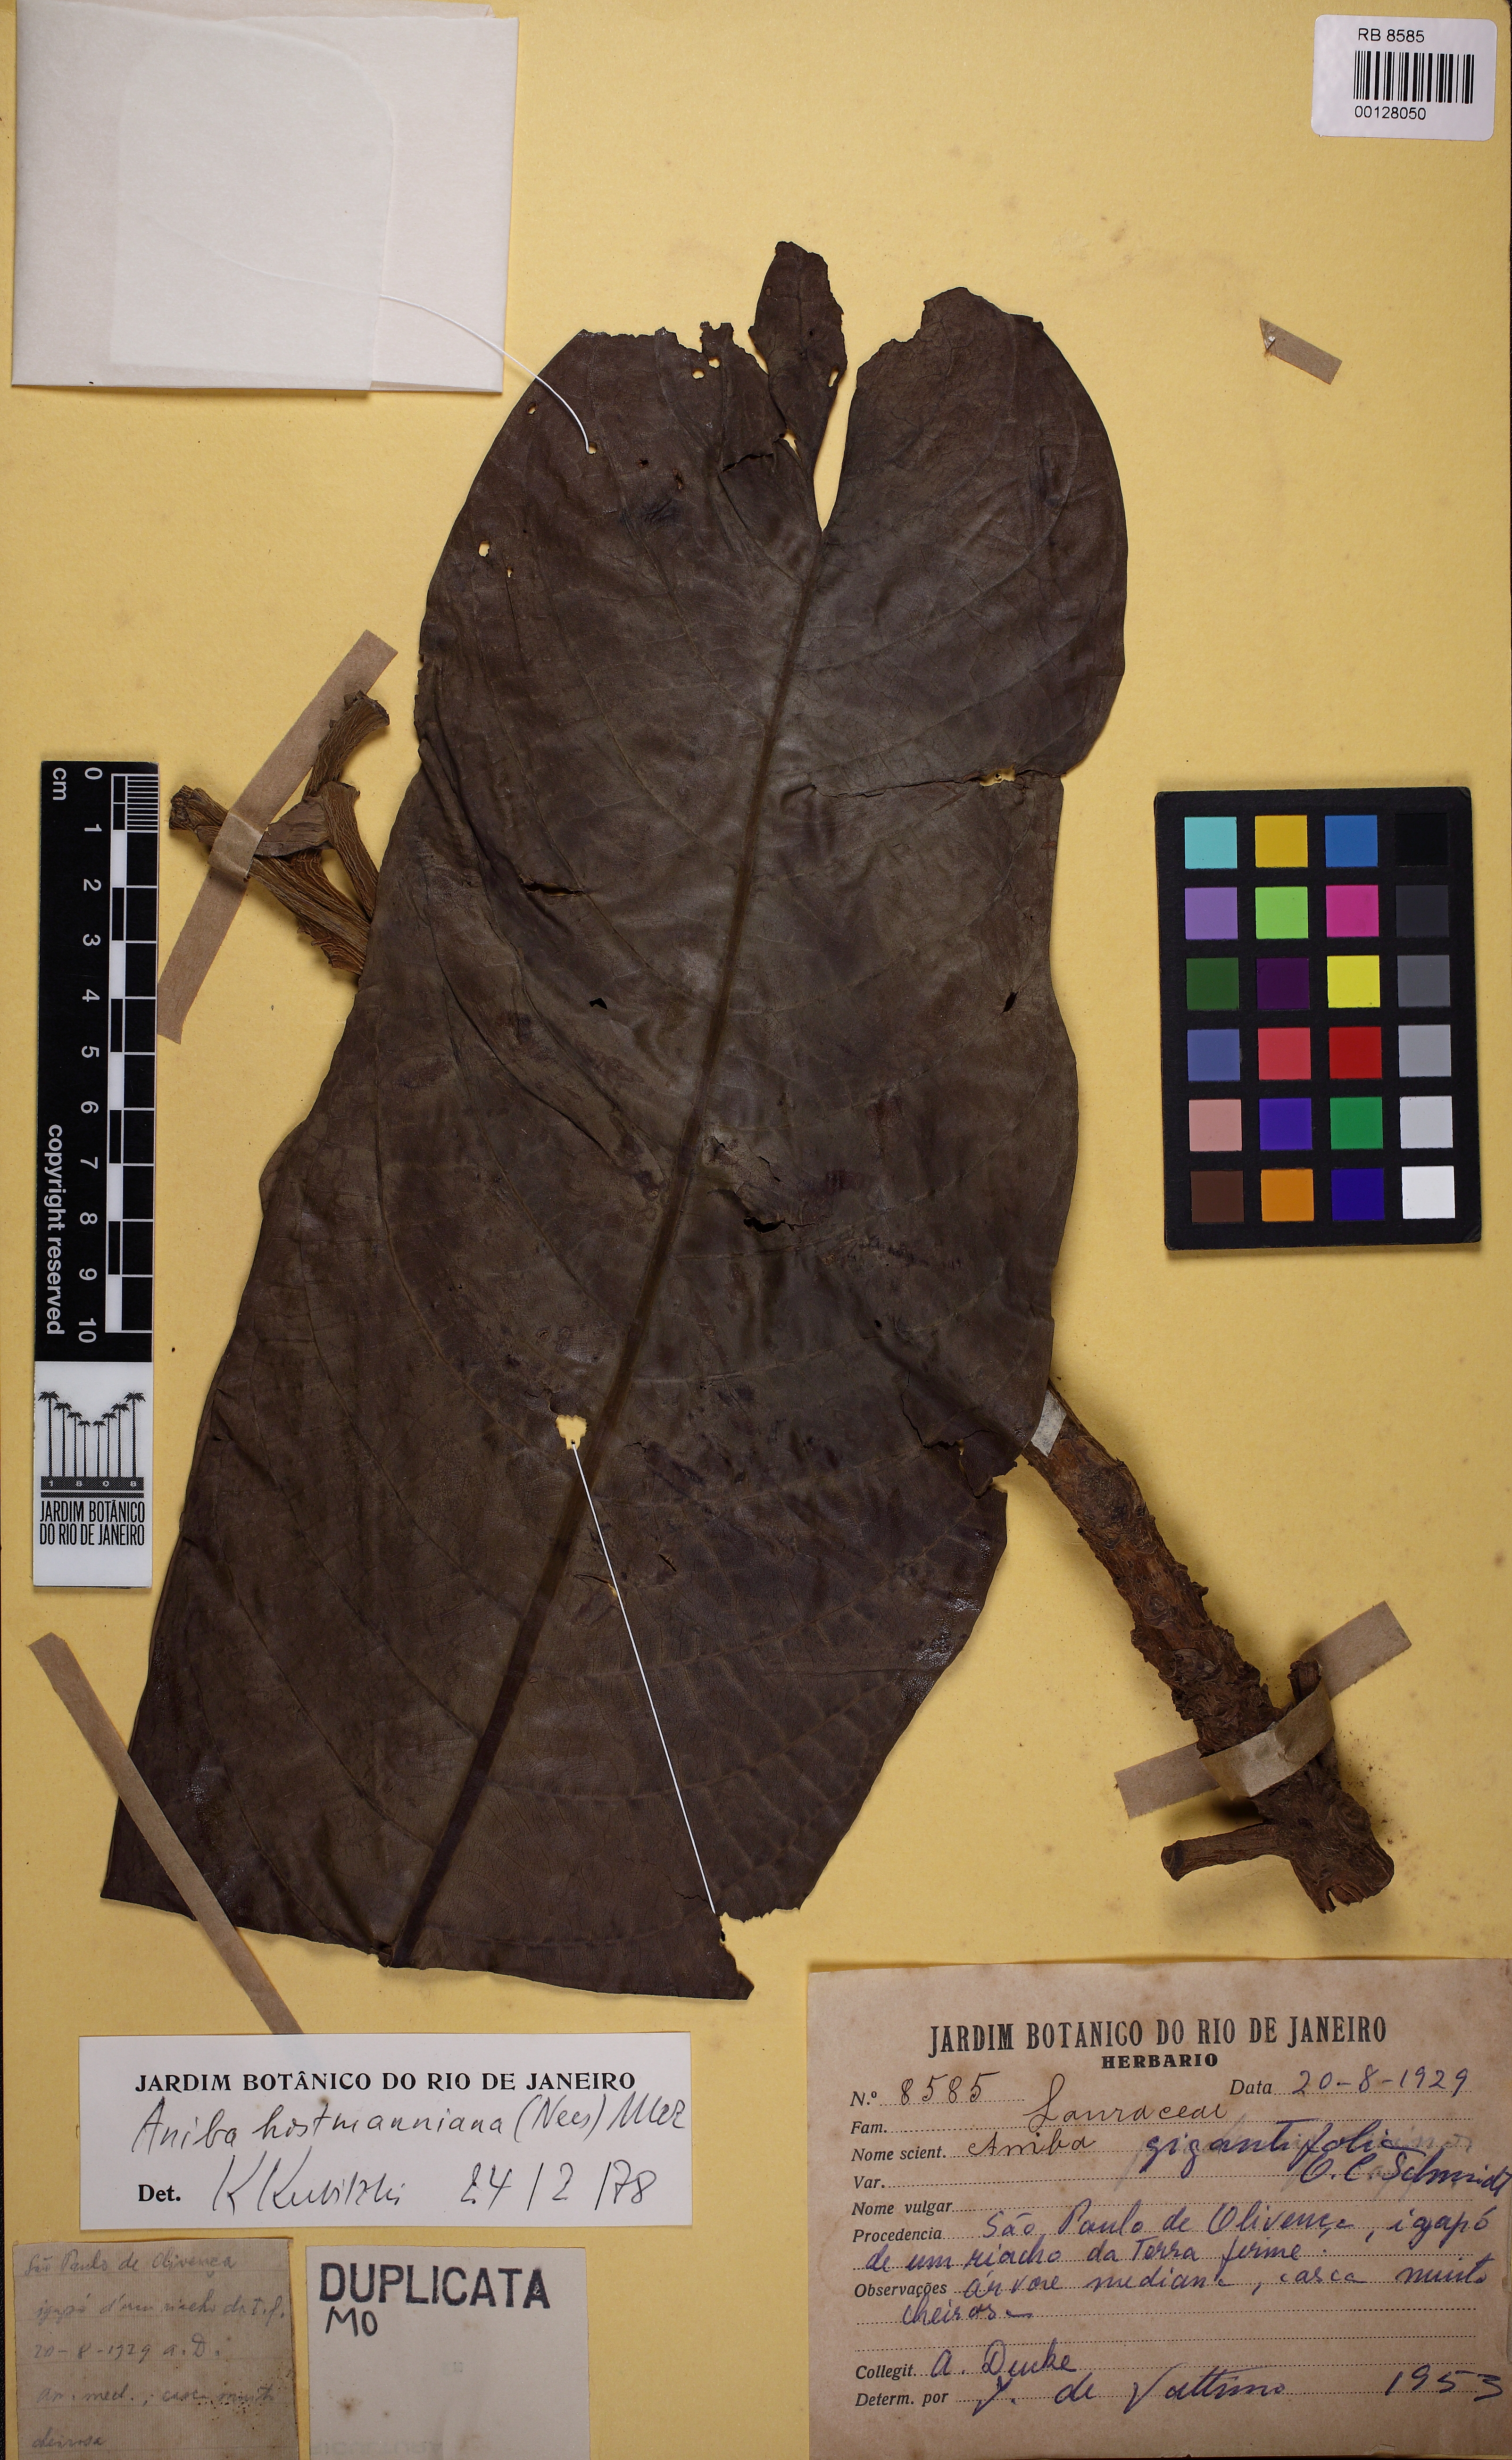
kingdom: Plantae
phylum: Tracheophyta
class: Magnoliopsida
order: Laurales
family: Lauraceae
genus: Aniba
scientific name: Aniba hostmanniana
